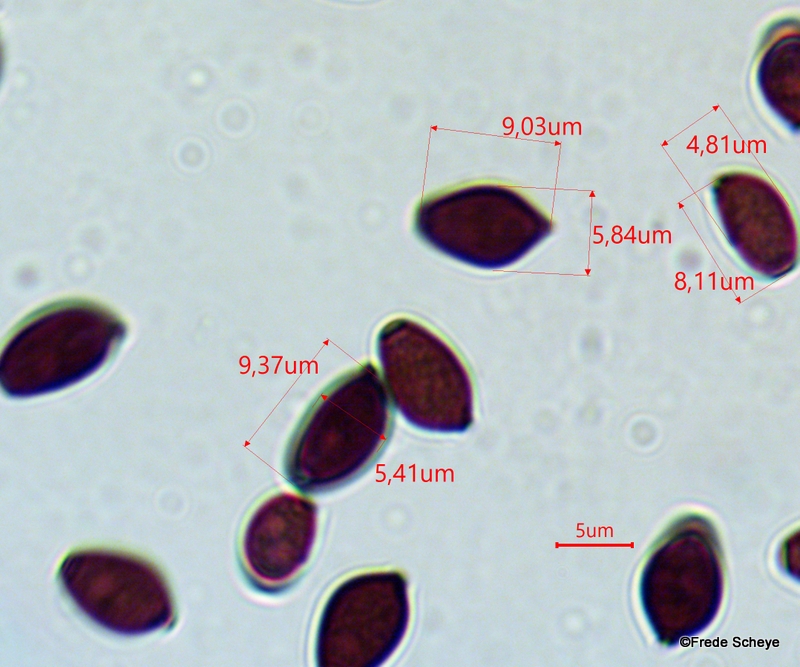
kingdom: Fungi
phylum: Basidiomycota
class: Agaricomycetes
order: Agaricales
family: Psathyrellaceae
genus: Coprinellus
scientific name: Coprinellus micaceus
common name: glimmer-blækhat
